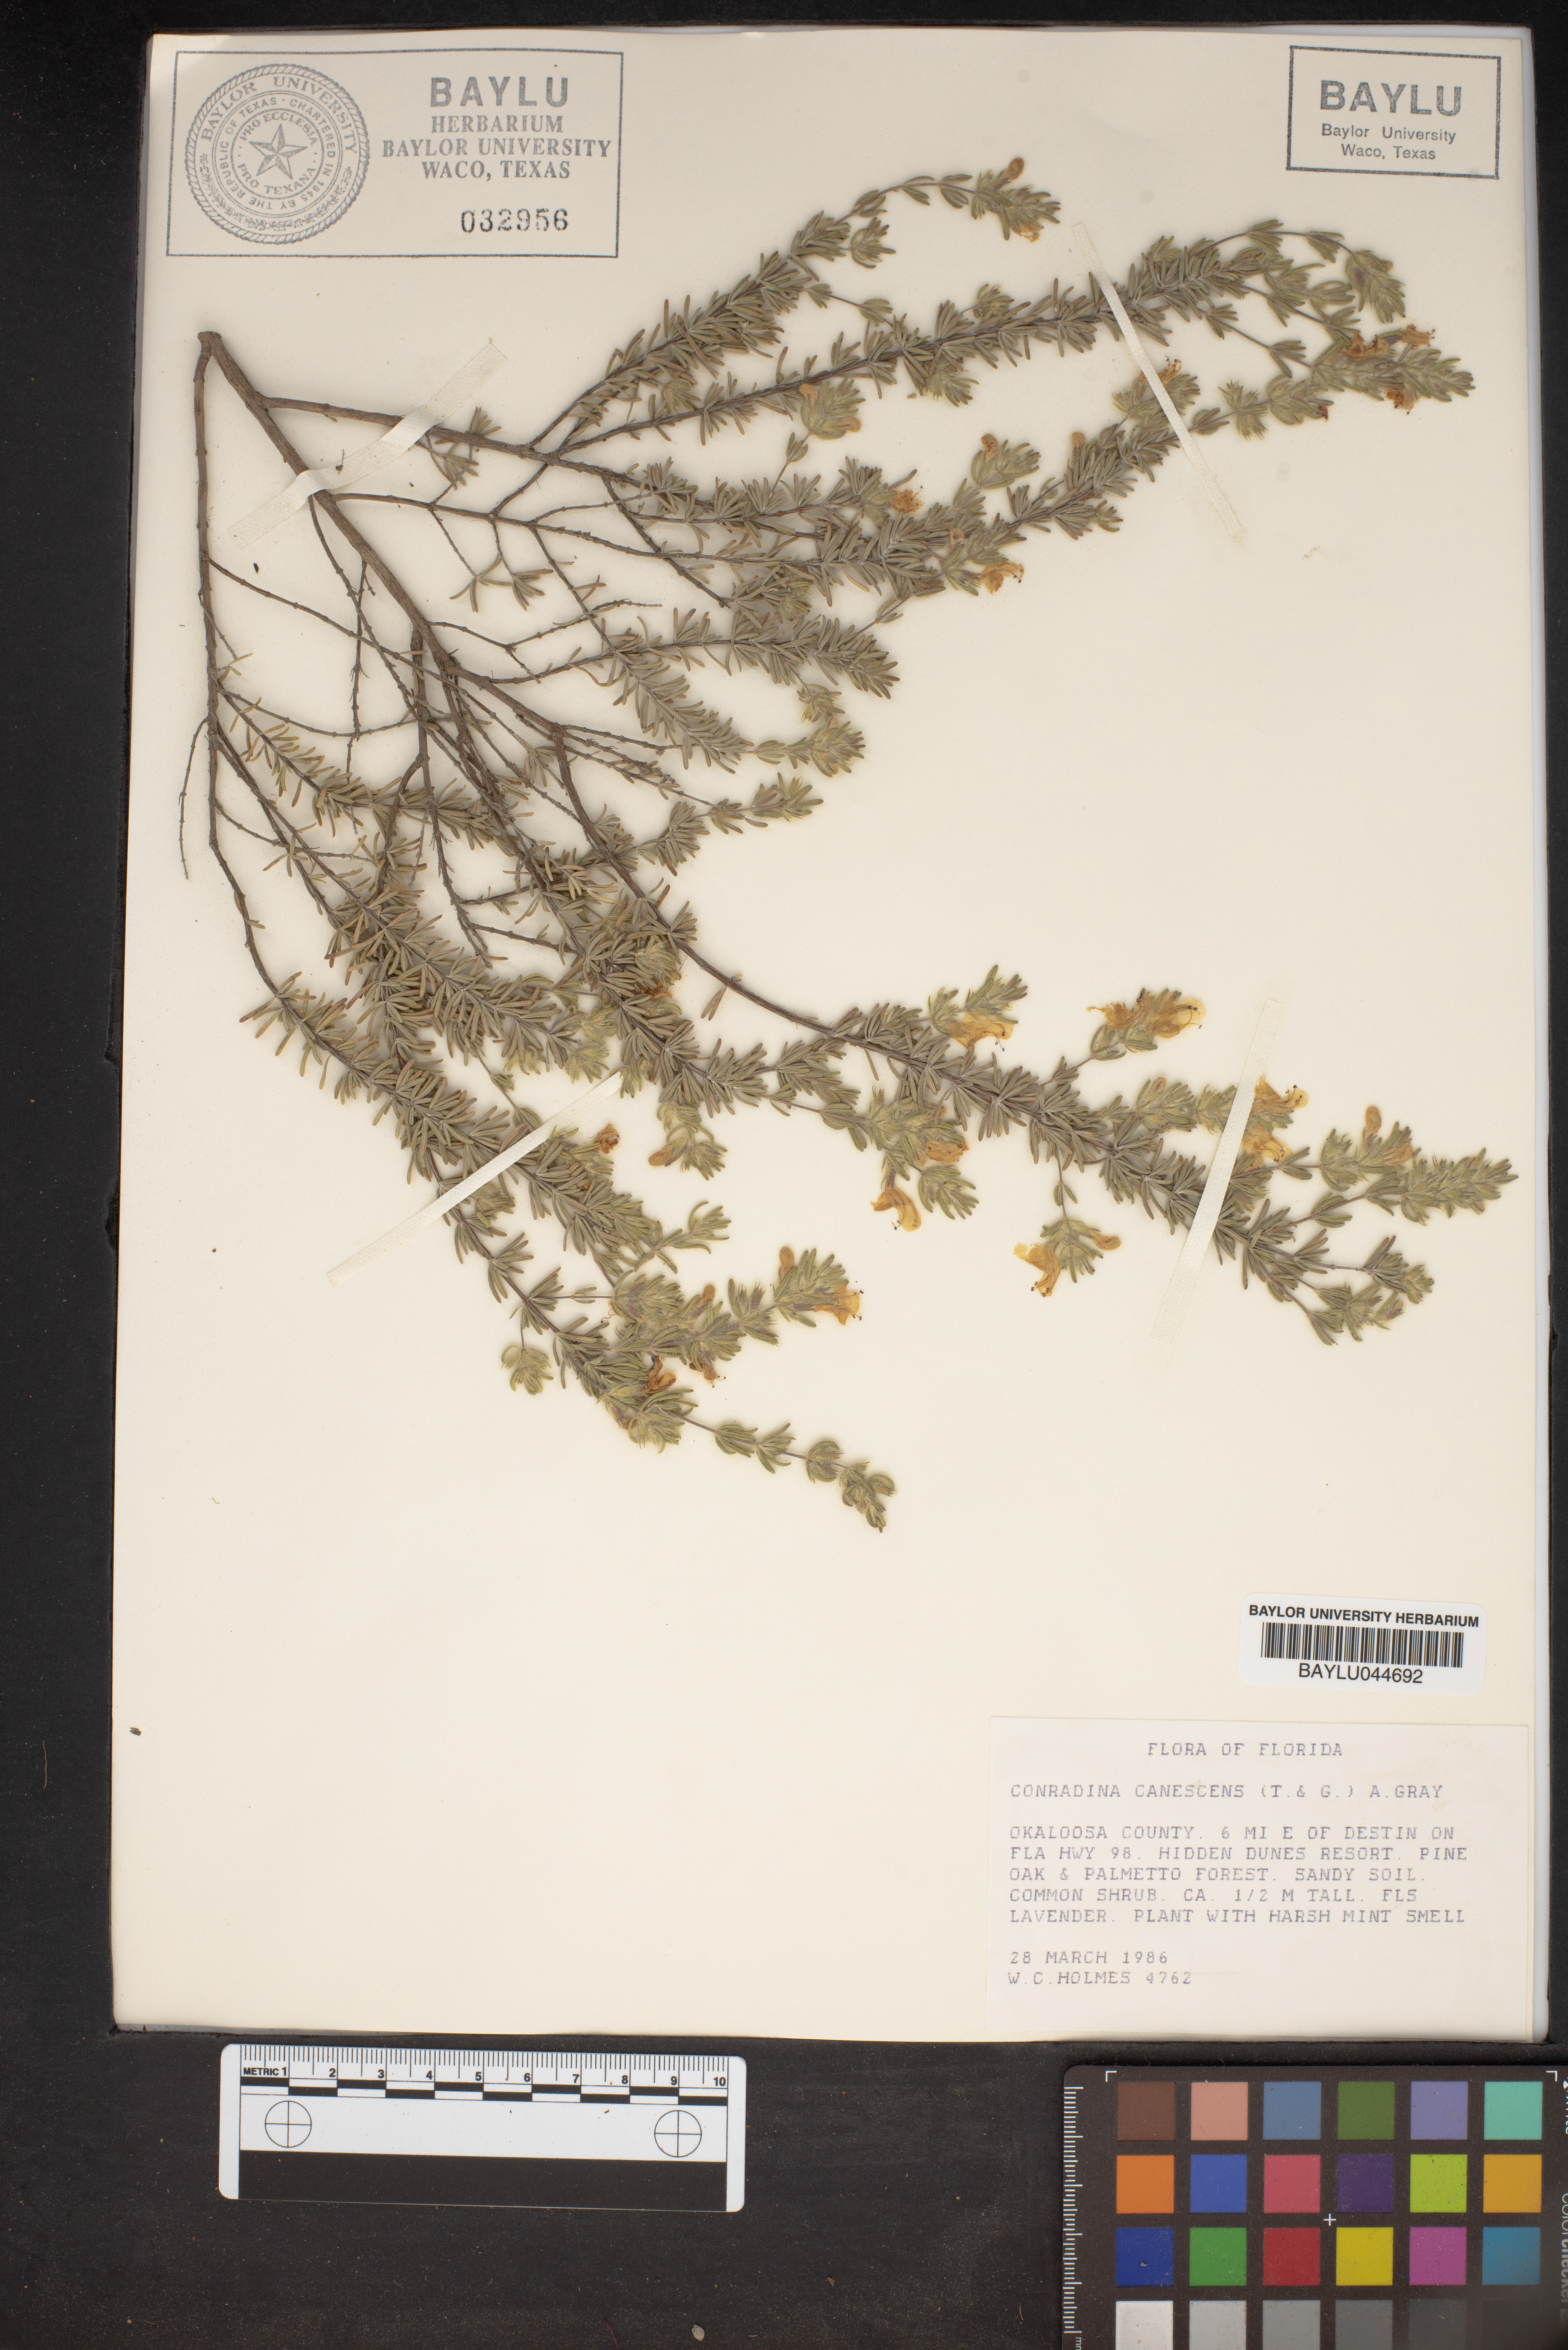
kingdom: Plantae
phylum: Tracheophyta
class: Magnoliopsida
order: Lamiales
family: Lamiaceae
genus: Conradina
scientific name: Conradina canescens
